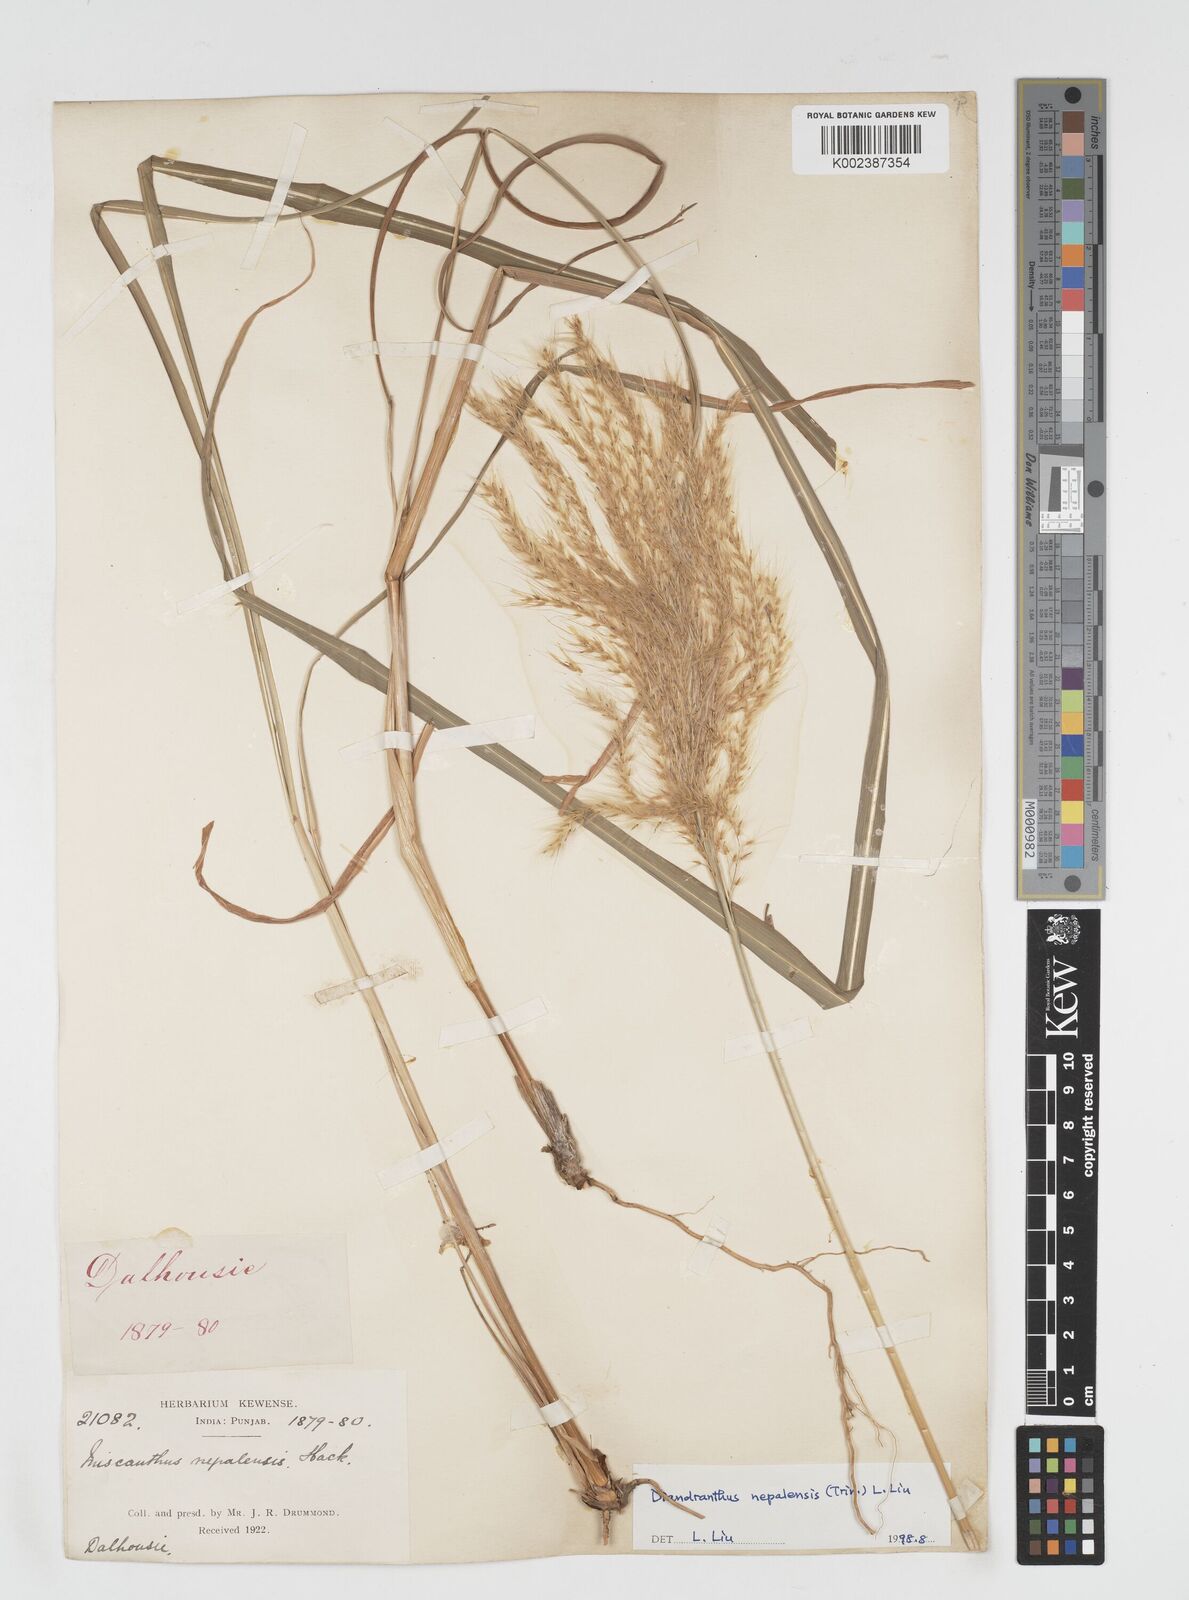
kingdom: Plantae
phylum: Tracheophyta
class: Liliopsida
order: Poales
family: Poaceae
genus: Miscanthus
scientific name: Miscanthus nepalensis
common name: Nepal silver grass
